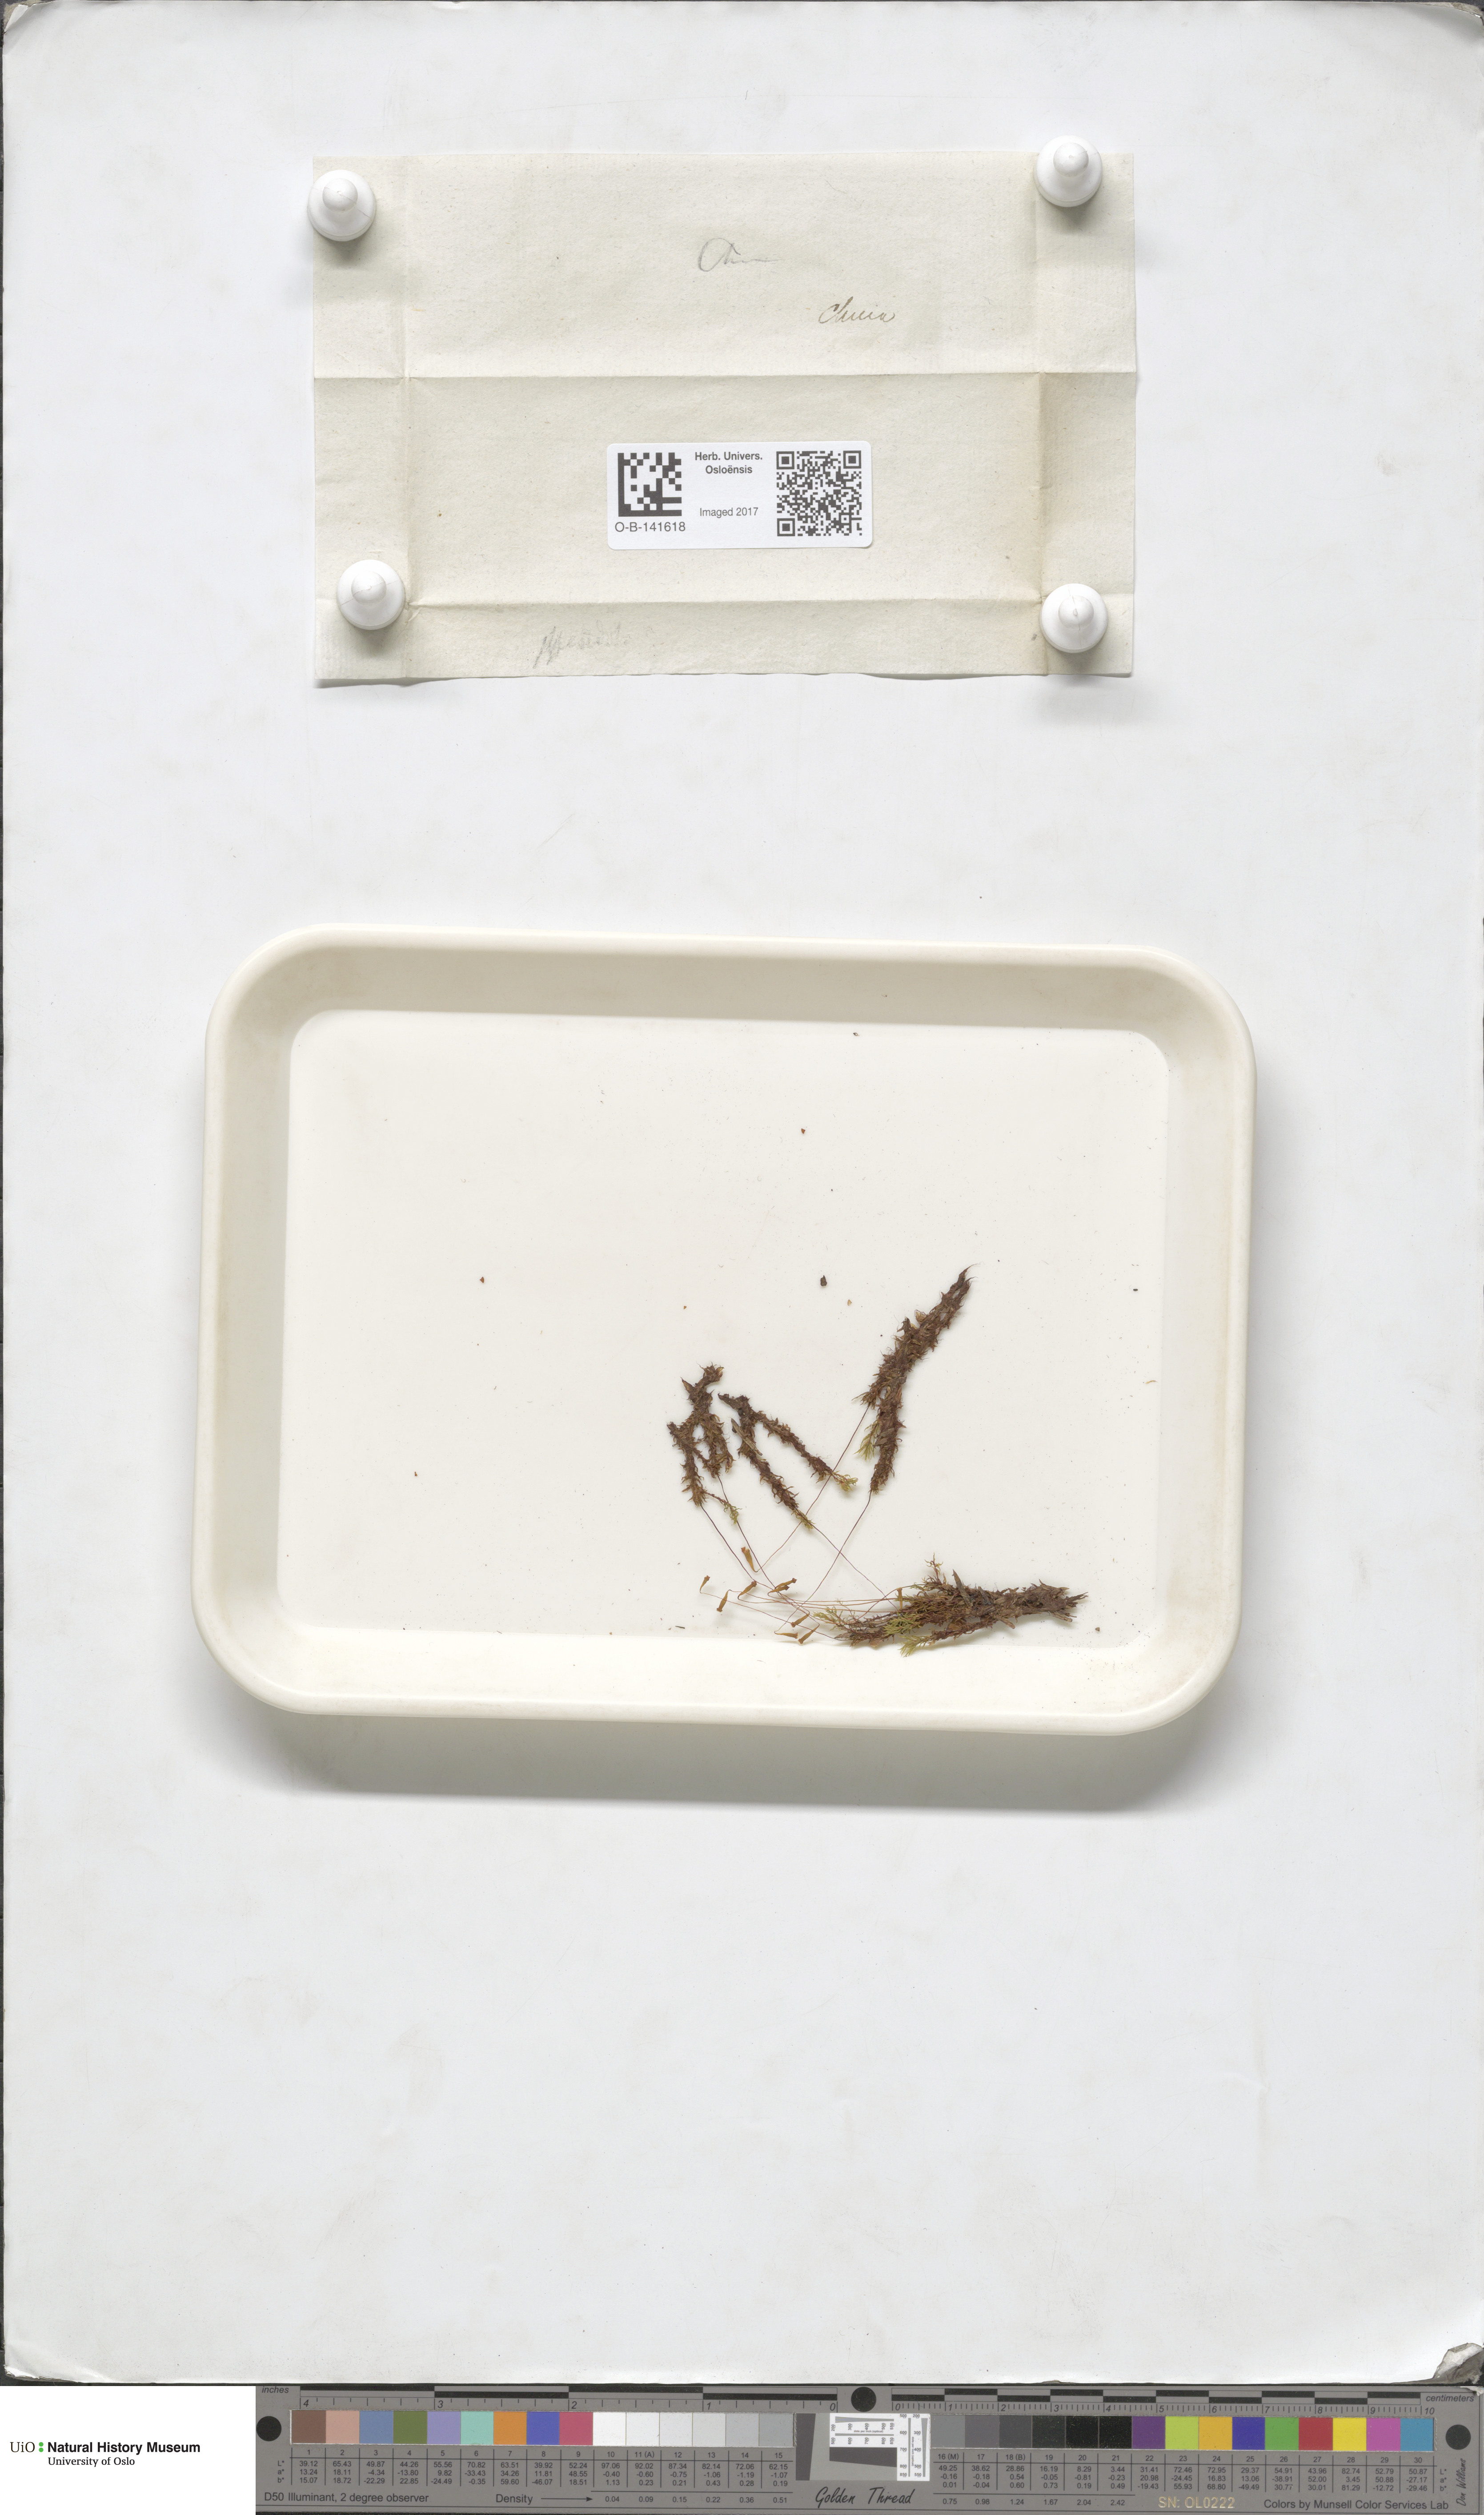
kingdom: Plantae
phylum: Bryophyta
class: Bryopsida
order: Bryales
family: Bryaceae
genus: Ptychostomum
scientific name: Ptychostomum pseudotriquetrum
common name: Long-leaved thread moss
